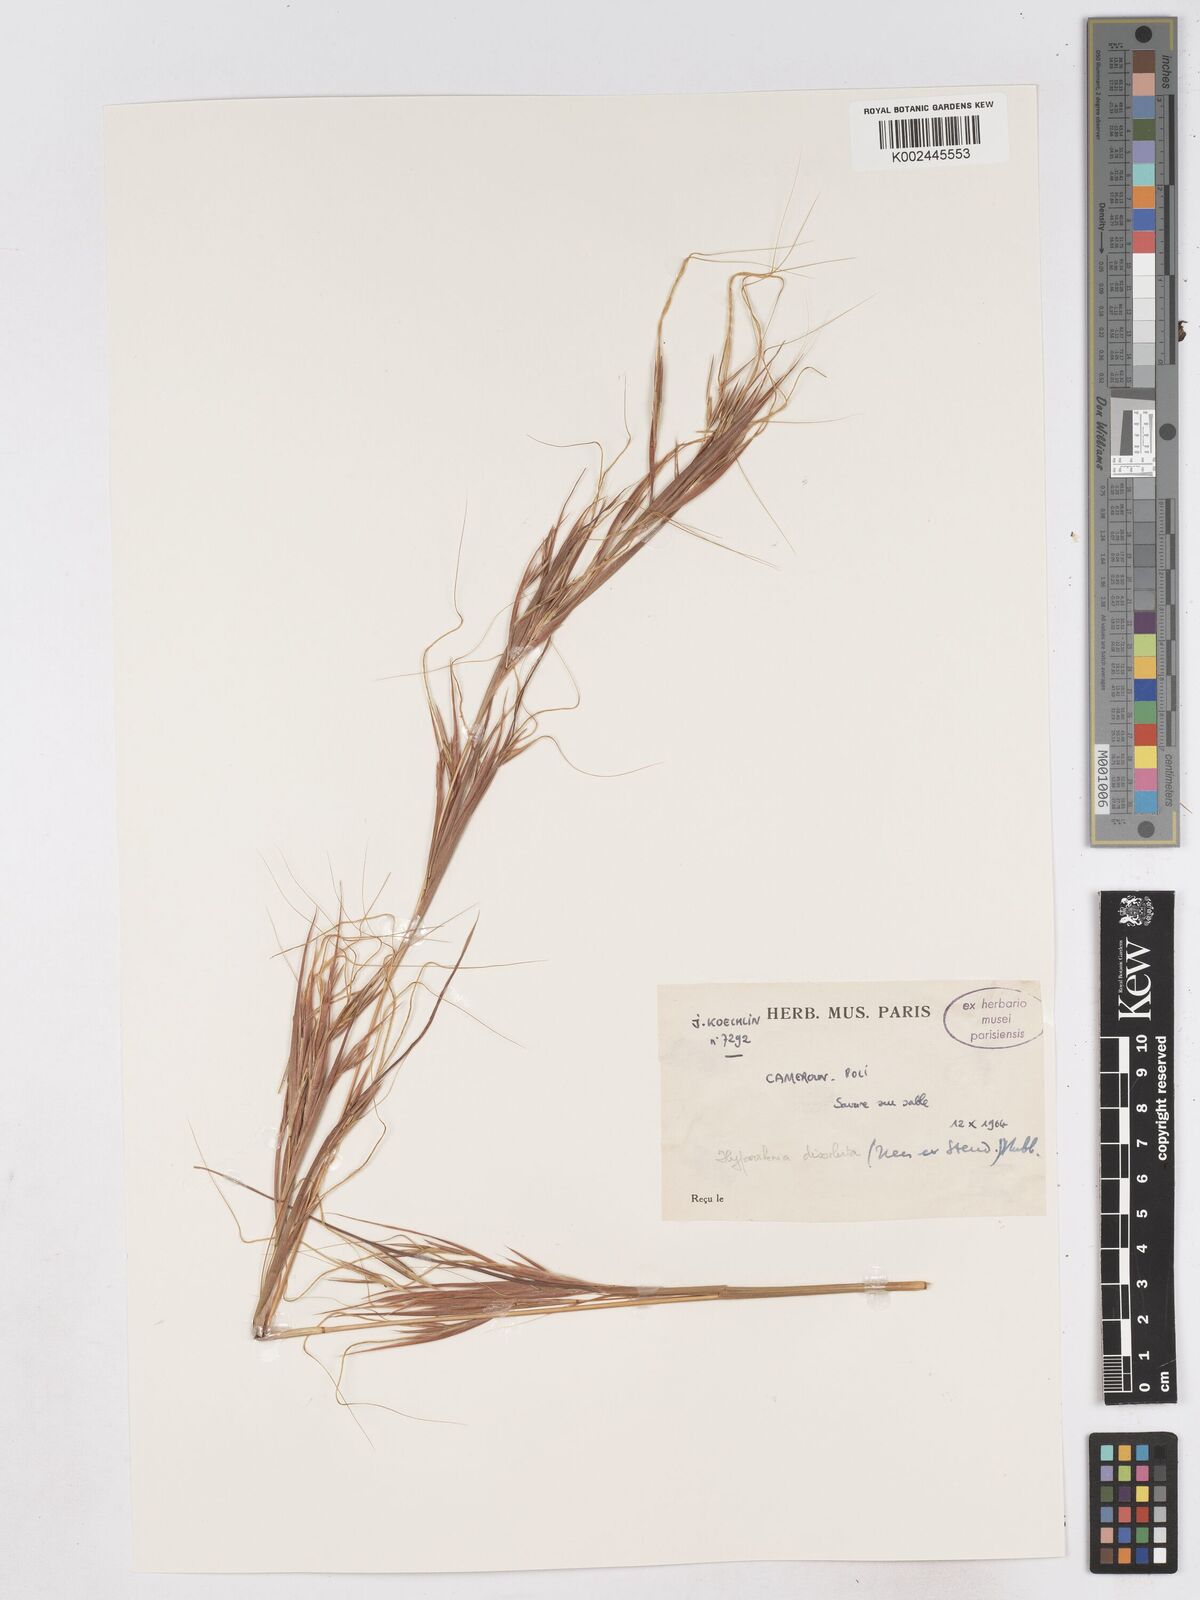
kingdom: Plantae
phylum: Tracheophyta
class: Liliopsida
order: Poales
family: Poaceae
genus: Hyperthelia
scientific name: Hyperthelia dissoluta
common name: Yellow thatching grass
